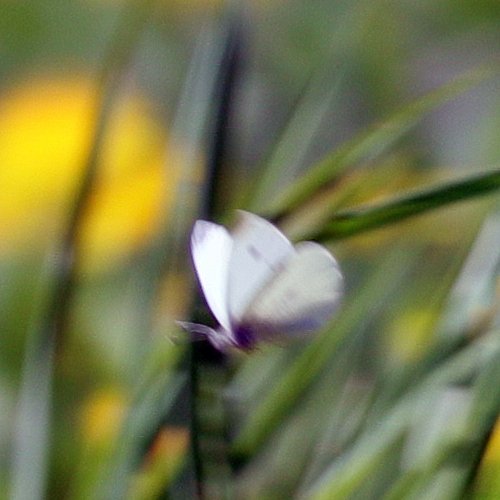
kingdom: Animalia
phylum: Arthropoda
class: Insecta
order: Lepidoptera
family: Pieridae
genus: Pieris
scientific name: Pieris rapae
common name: Cabbage White
